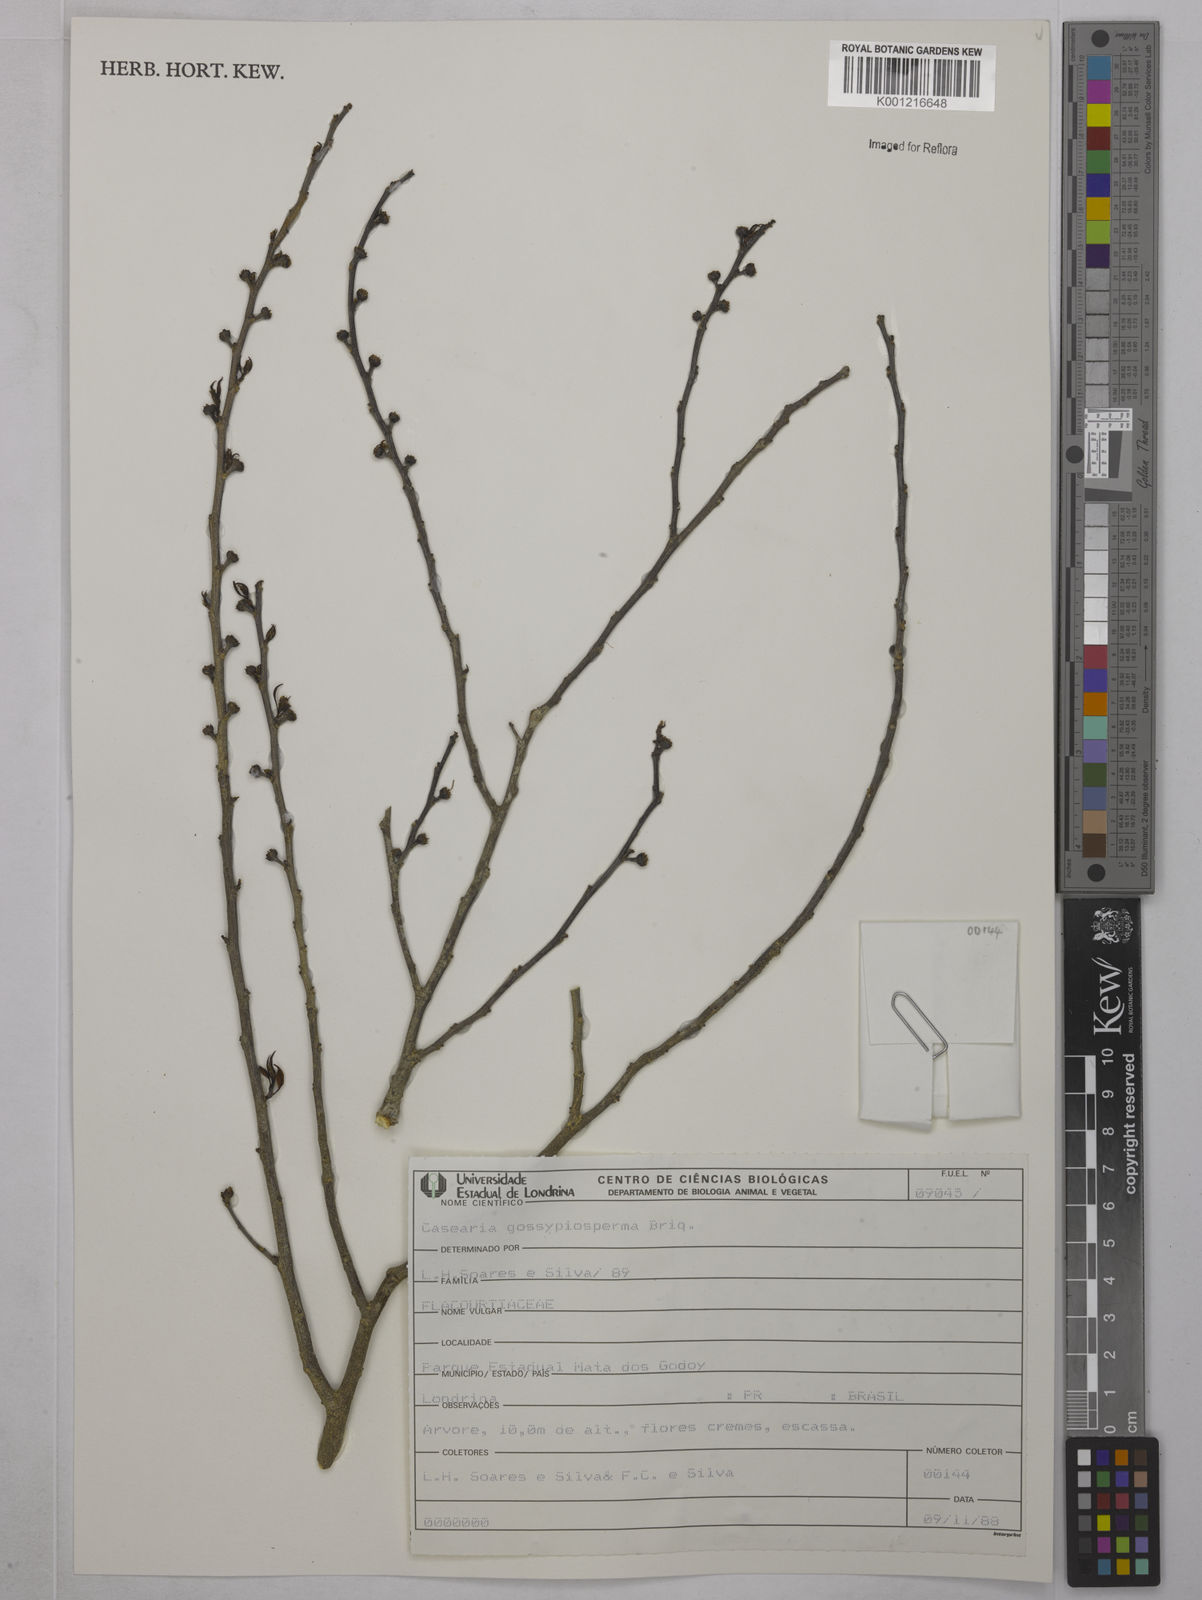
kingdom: Plantae
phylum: Tracheophyta
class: Magnoliopsida
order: Malpighiales
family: Salicaceae
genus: Casearia
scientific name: Casearia gossypiosperma
